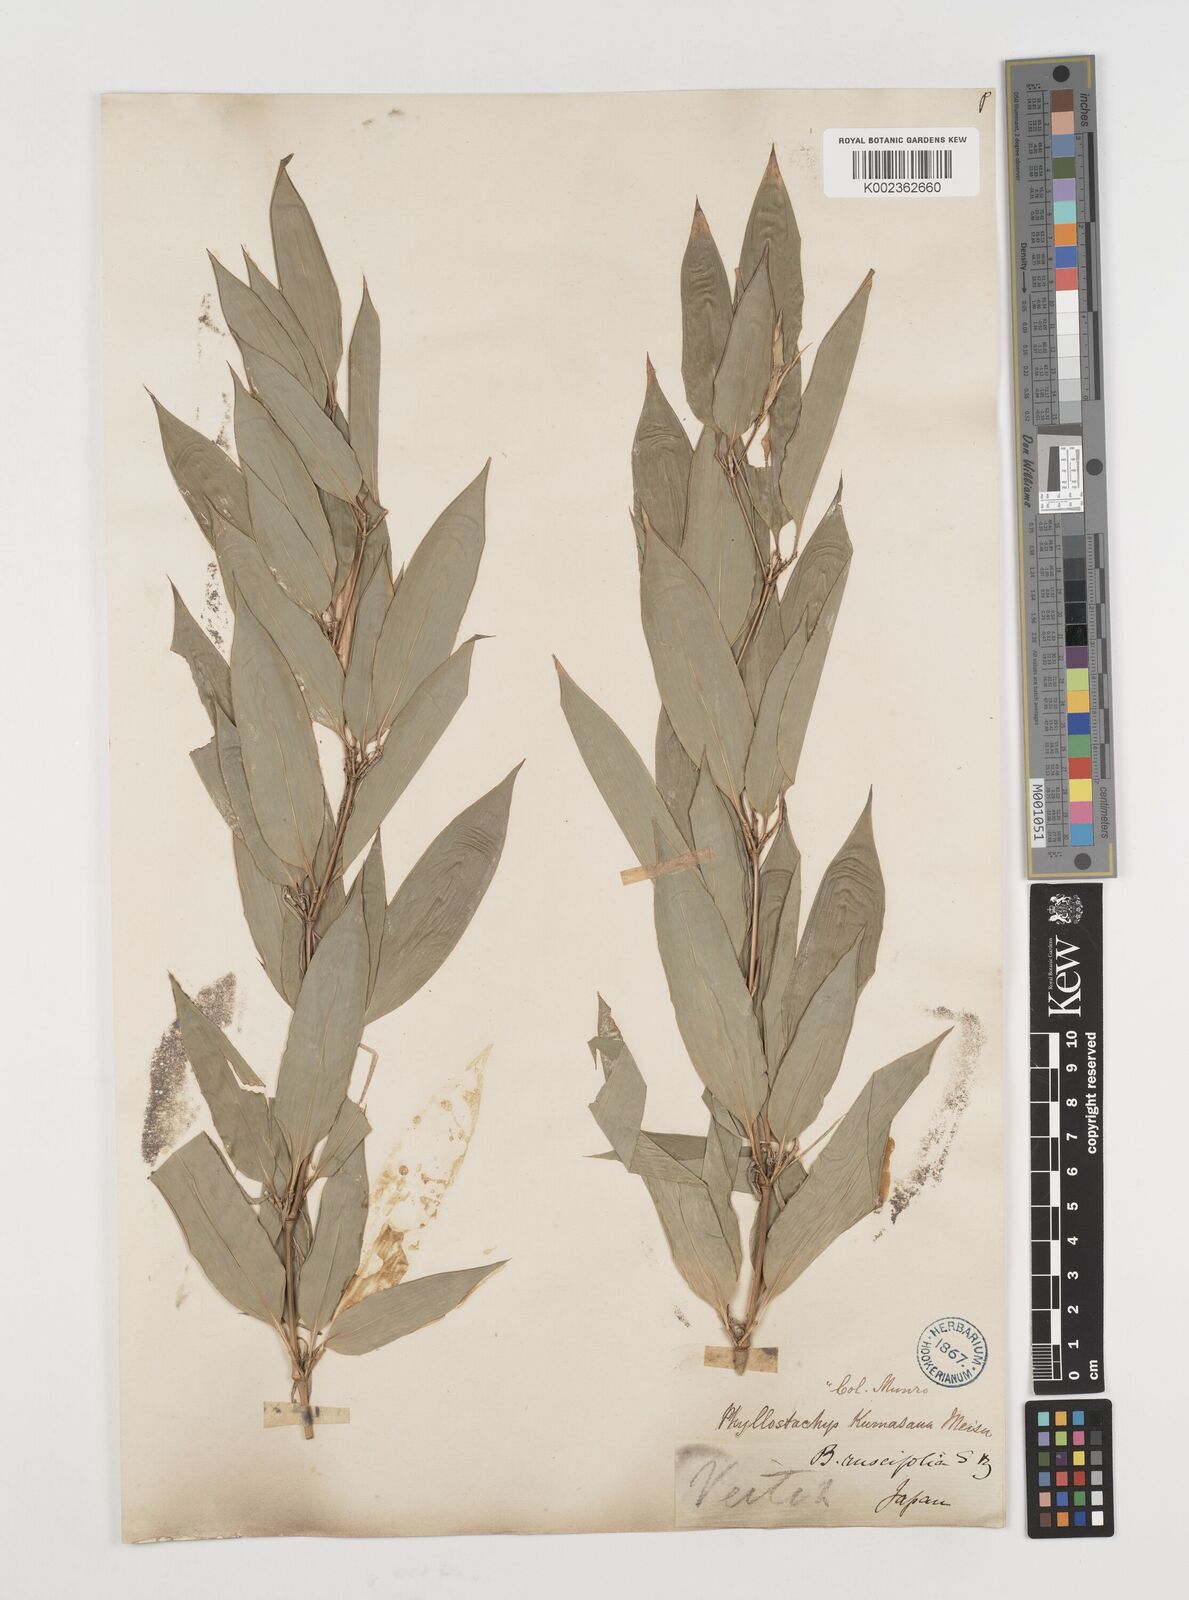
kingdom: Plantae
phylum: Tracheophyta
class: Liliopsida
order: Poales
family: Poaceae
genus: Shibataea
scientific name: Shibataea kumasasa
